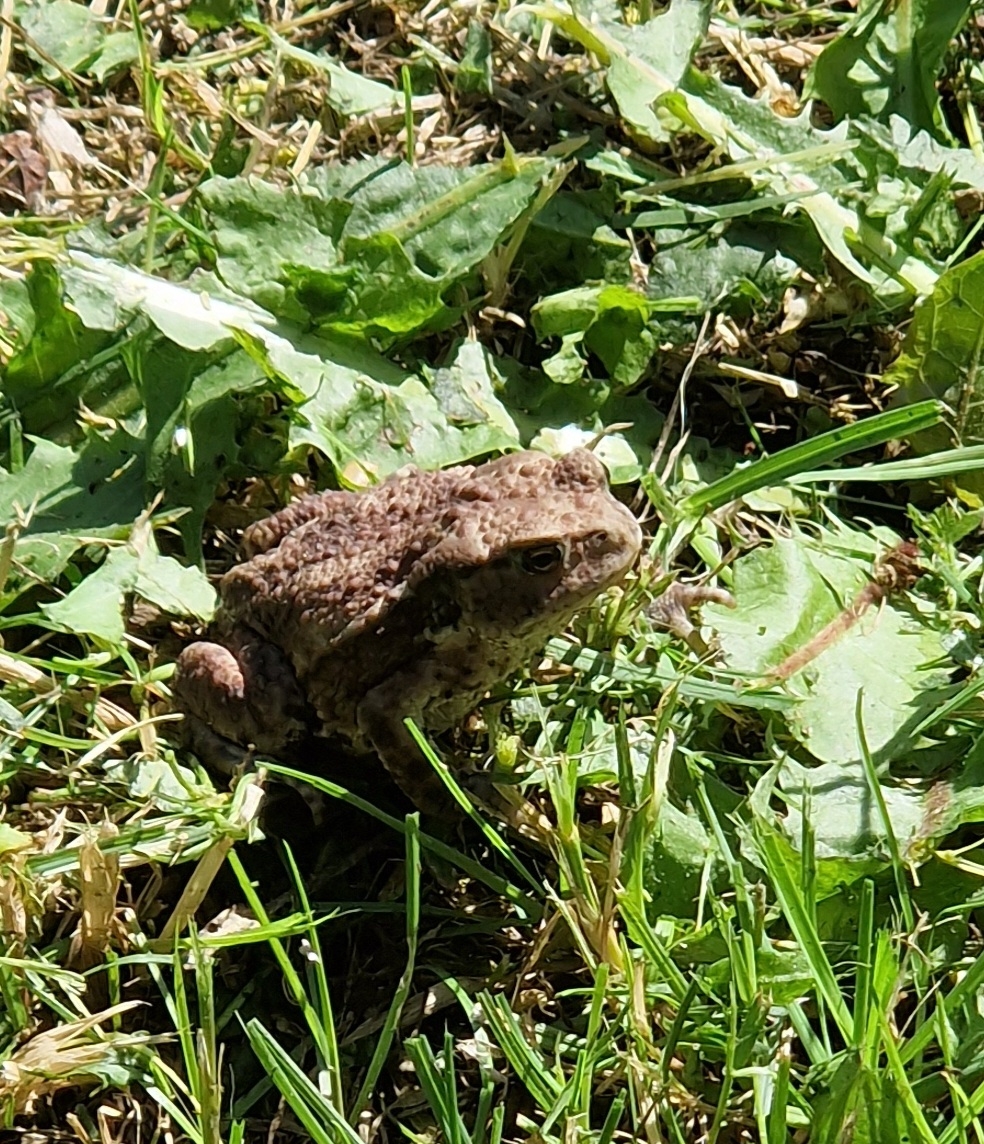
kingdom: Animalia
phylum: Chordata
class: Amphibia
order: Anura
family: Bufonidae
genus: Bufo
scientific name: Bufo bufo
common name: Skrubtudse
